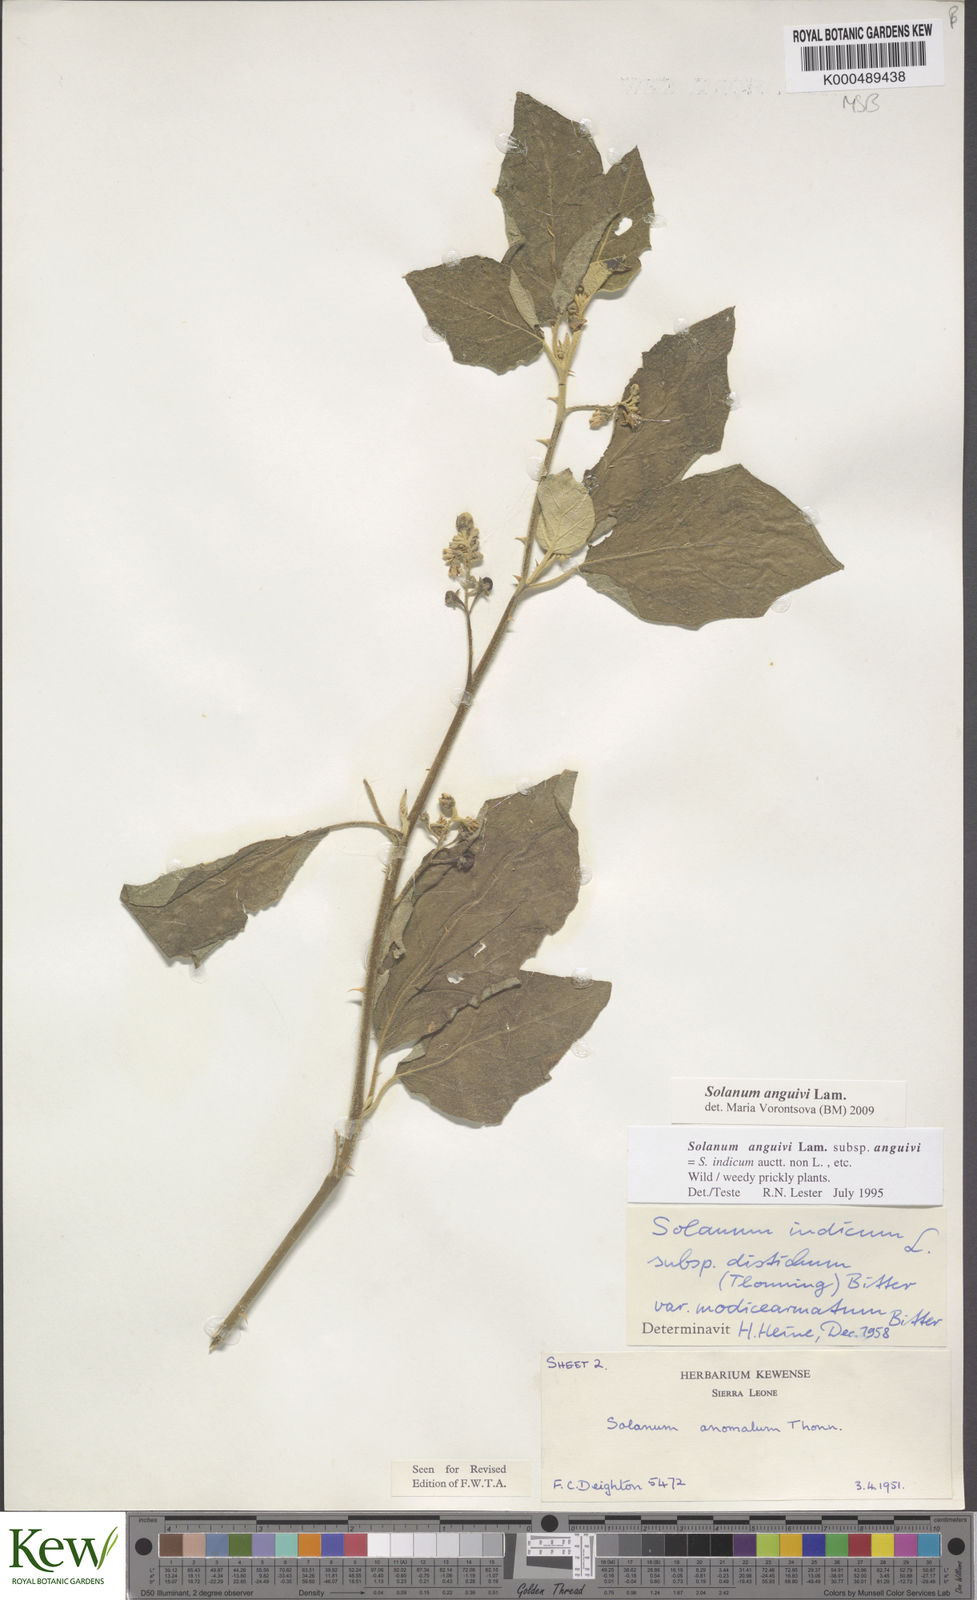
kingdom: Plantae
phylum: Tracheophyta
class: Magnoliopsida
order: Solanales
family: Solanaceae
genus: Solanum
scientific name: Solanum anguivi
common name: Forest bitterberry
